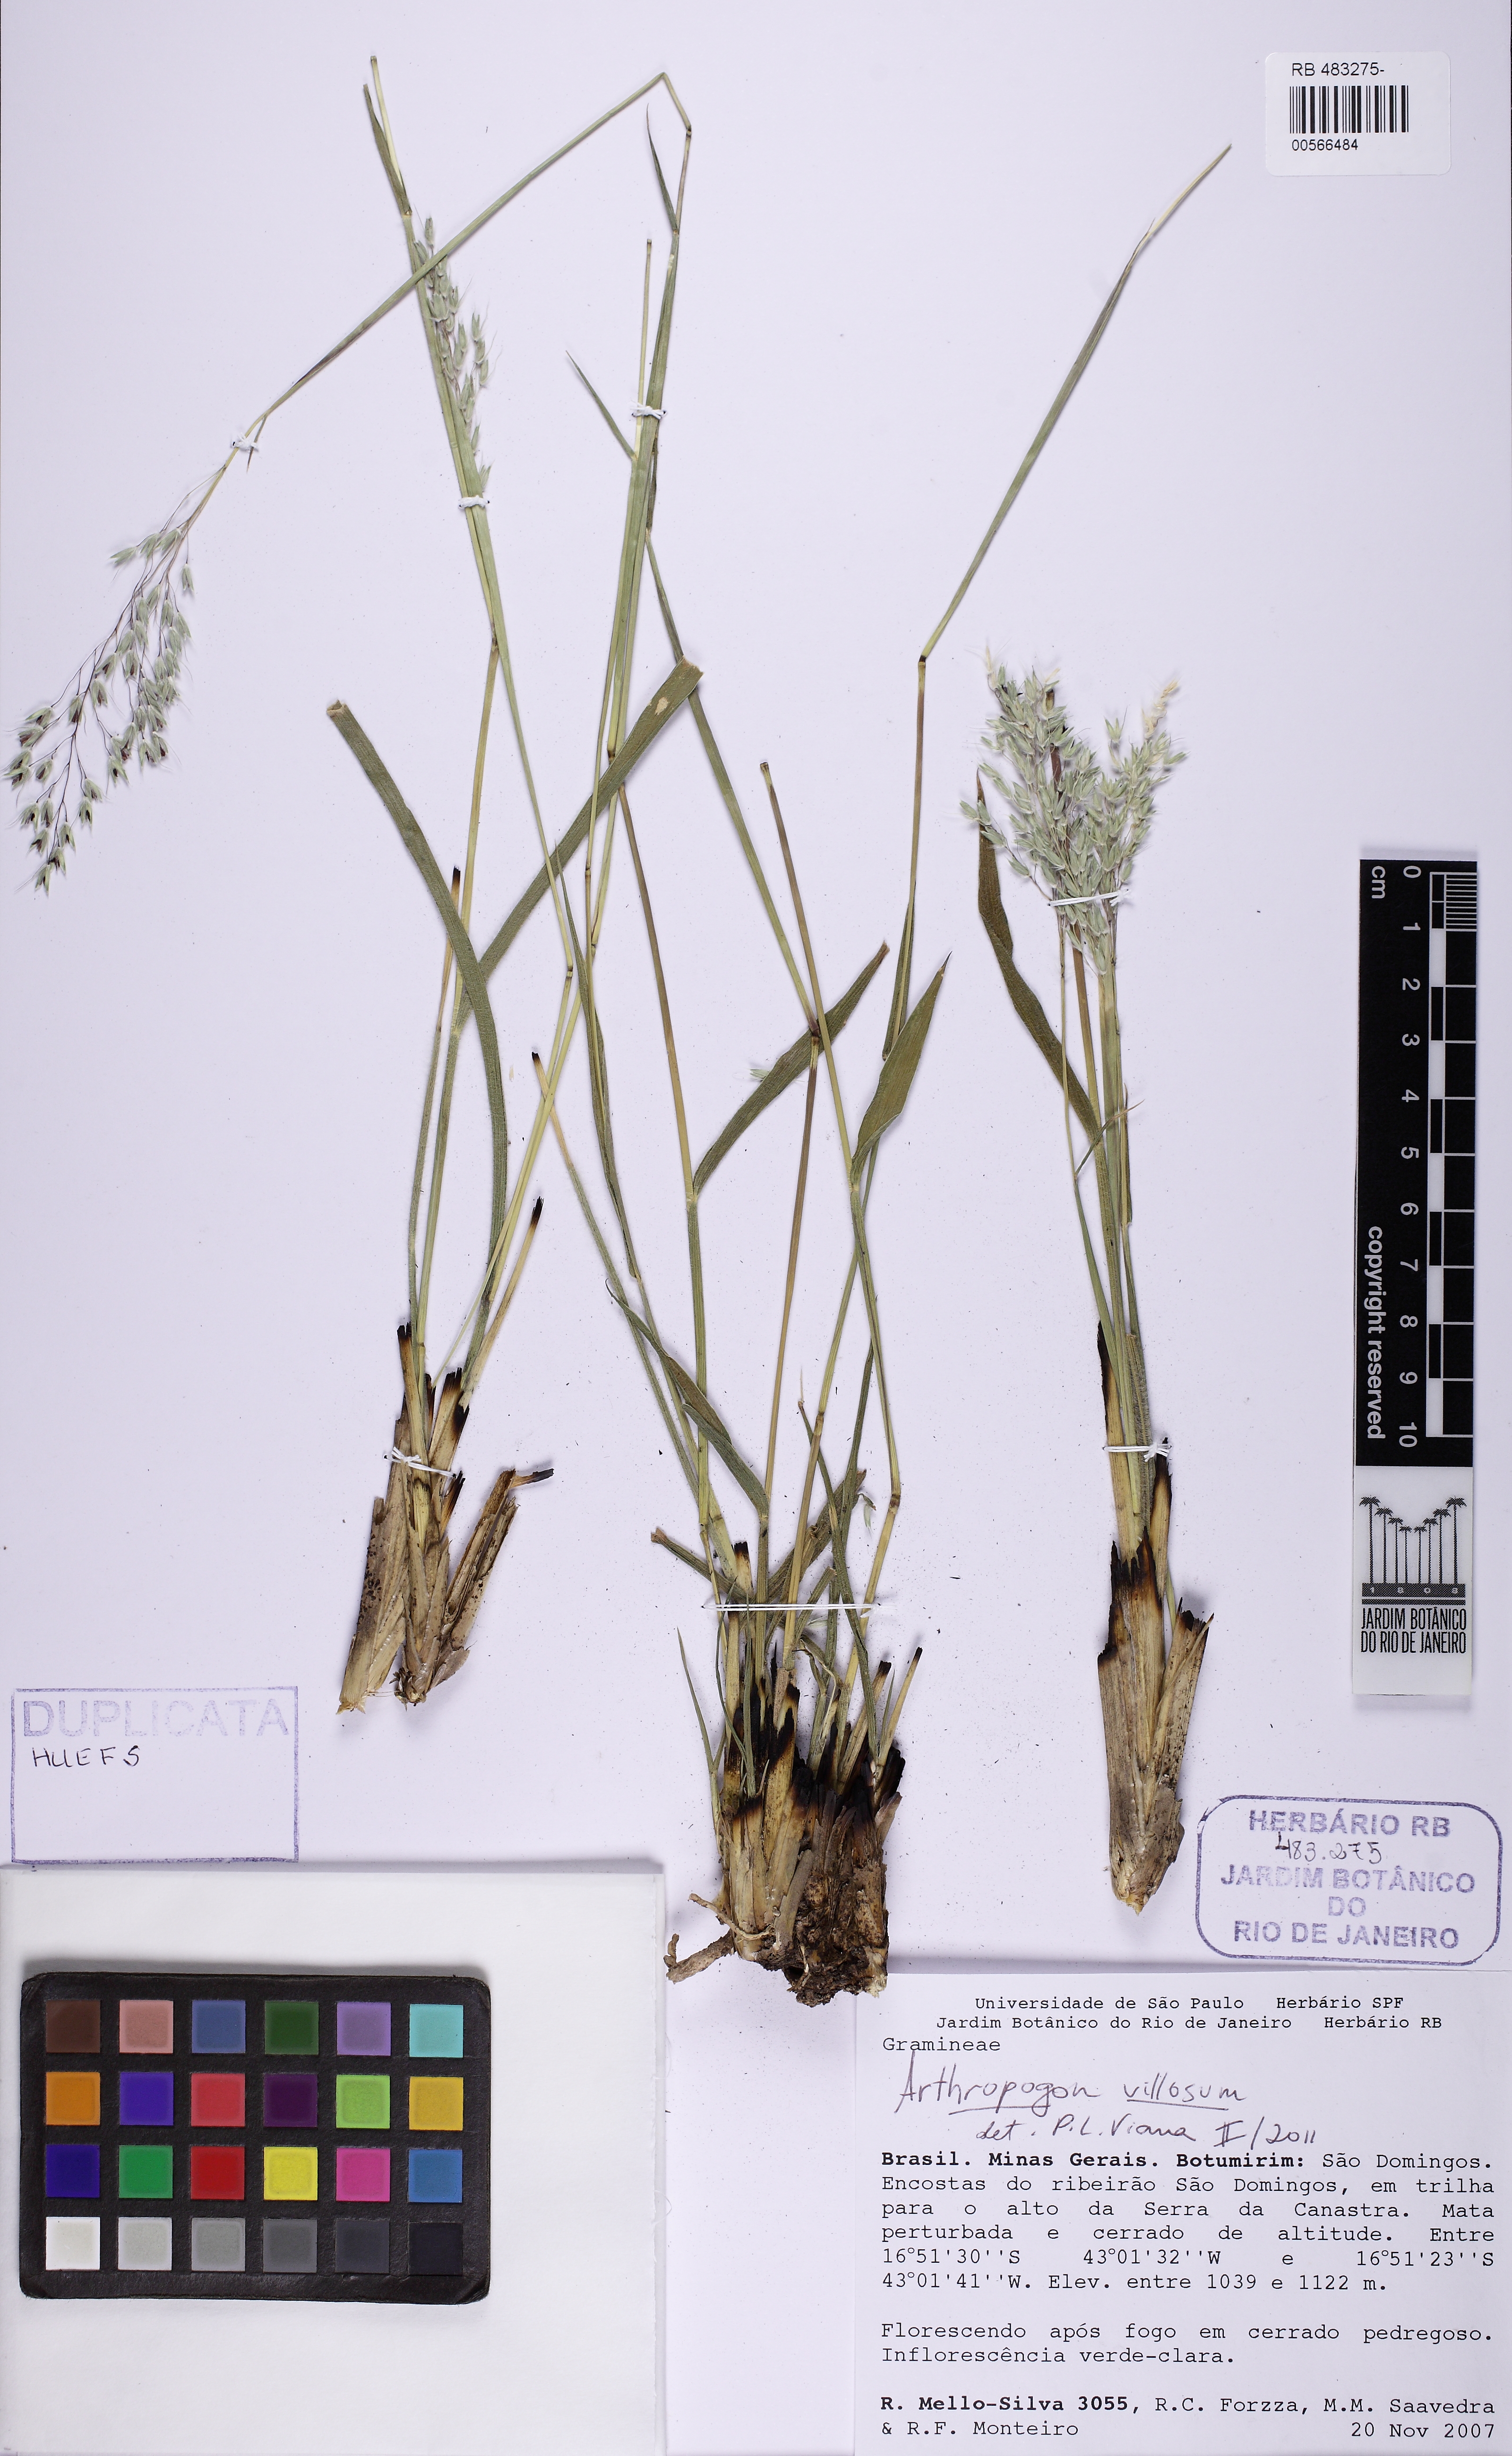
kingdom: Plantae
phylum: Tracheophyta
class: Liliopsida
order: Poales
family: Poaceae
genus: Arthropogon
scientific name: Arthropogon villosus
